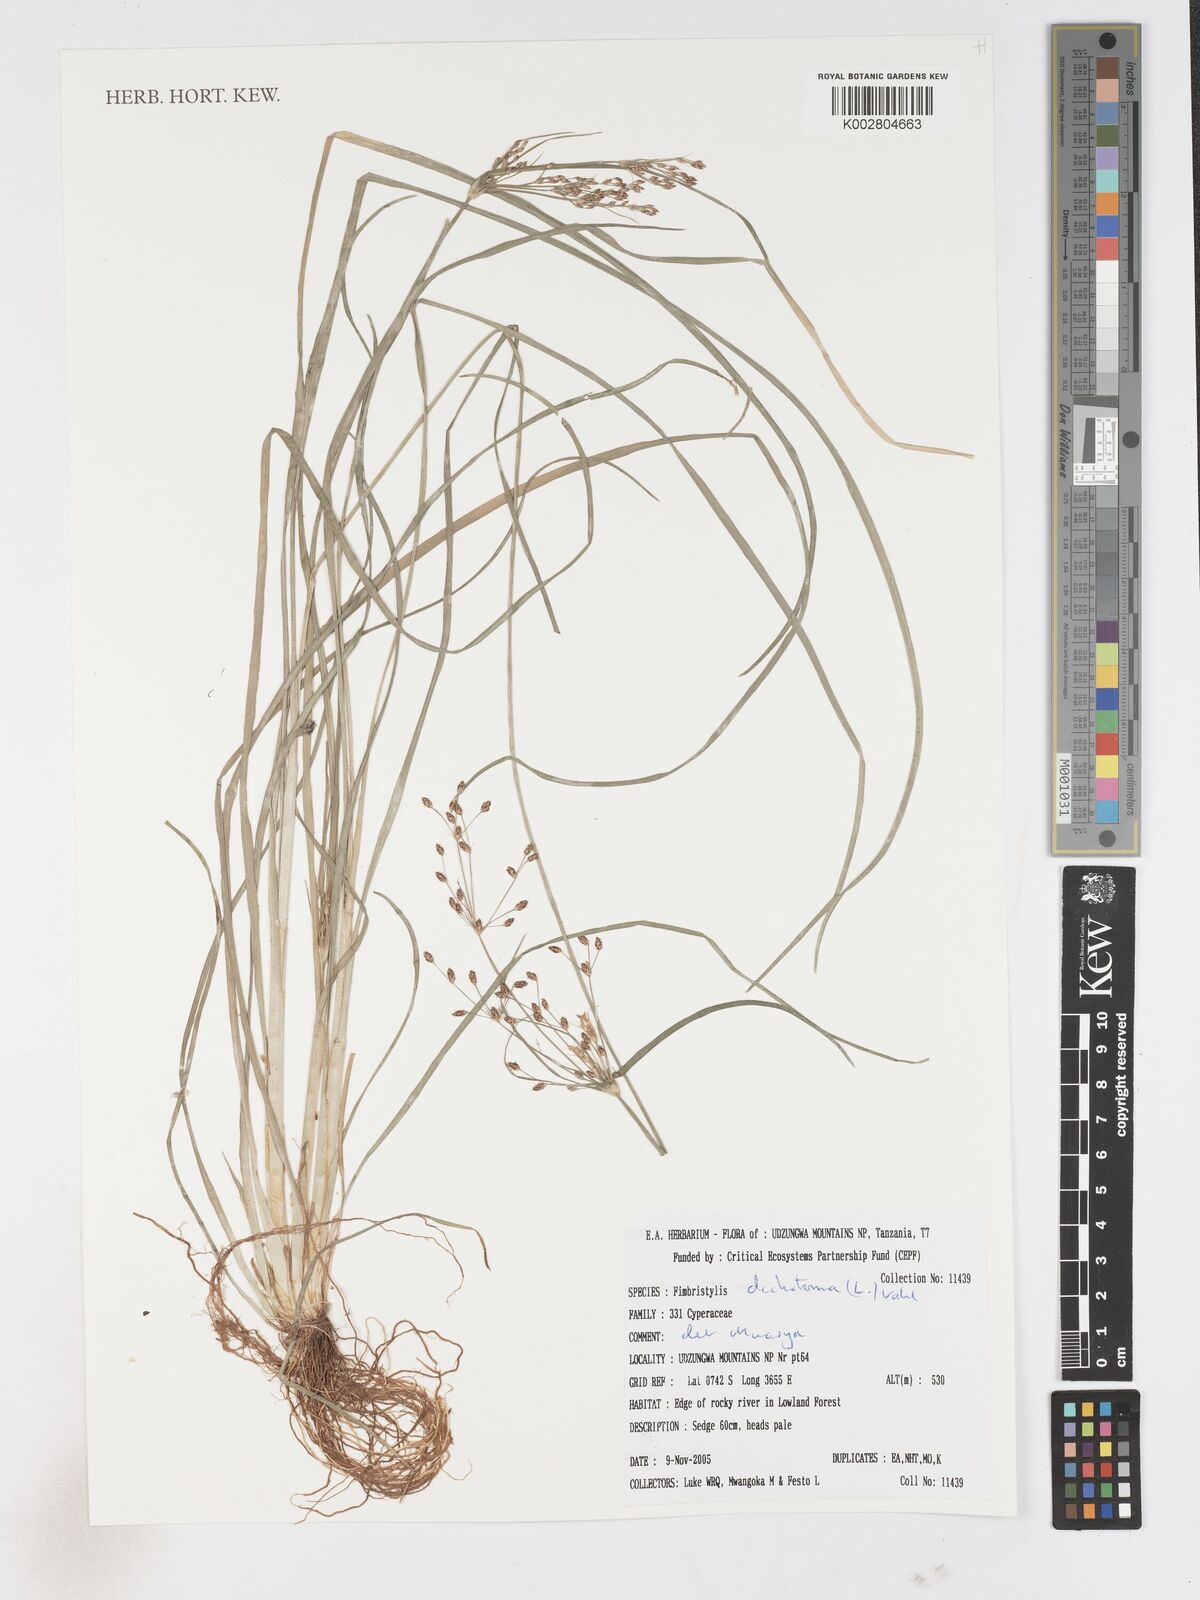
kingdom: Plantae
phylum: Tracheophyta
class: Liliopsida
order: Poales
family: Cyperaceae
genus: Fimbristylis
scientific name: Fimbristylis dichotoma
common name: Forked fimbry
